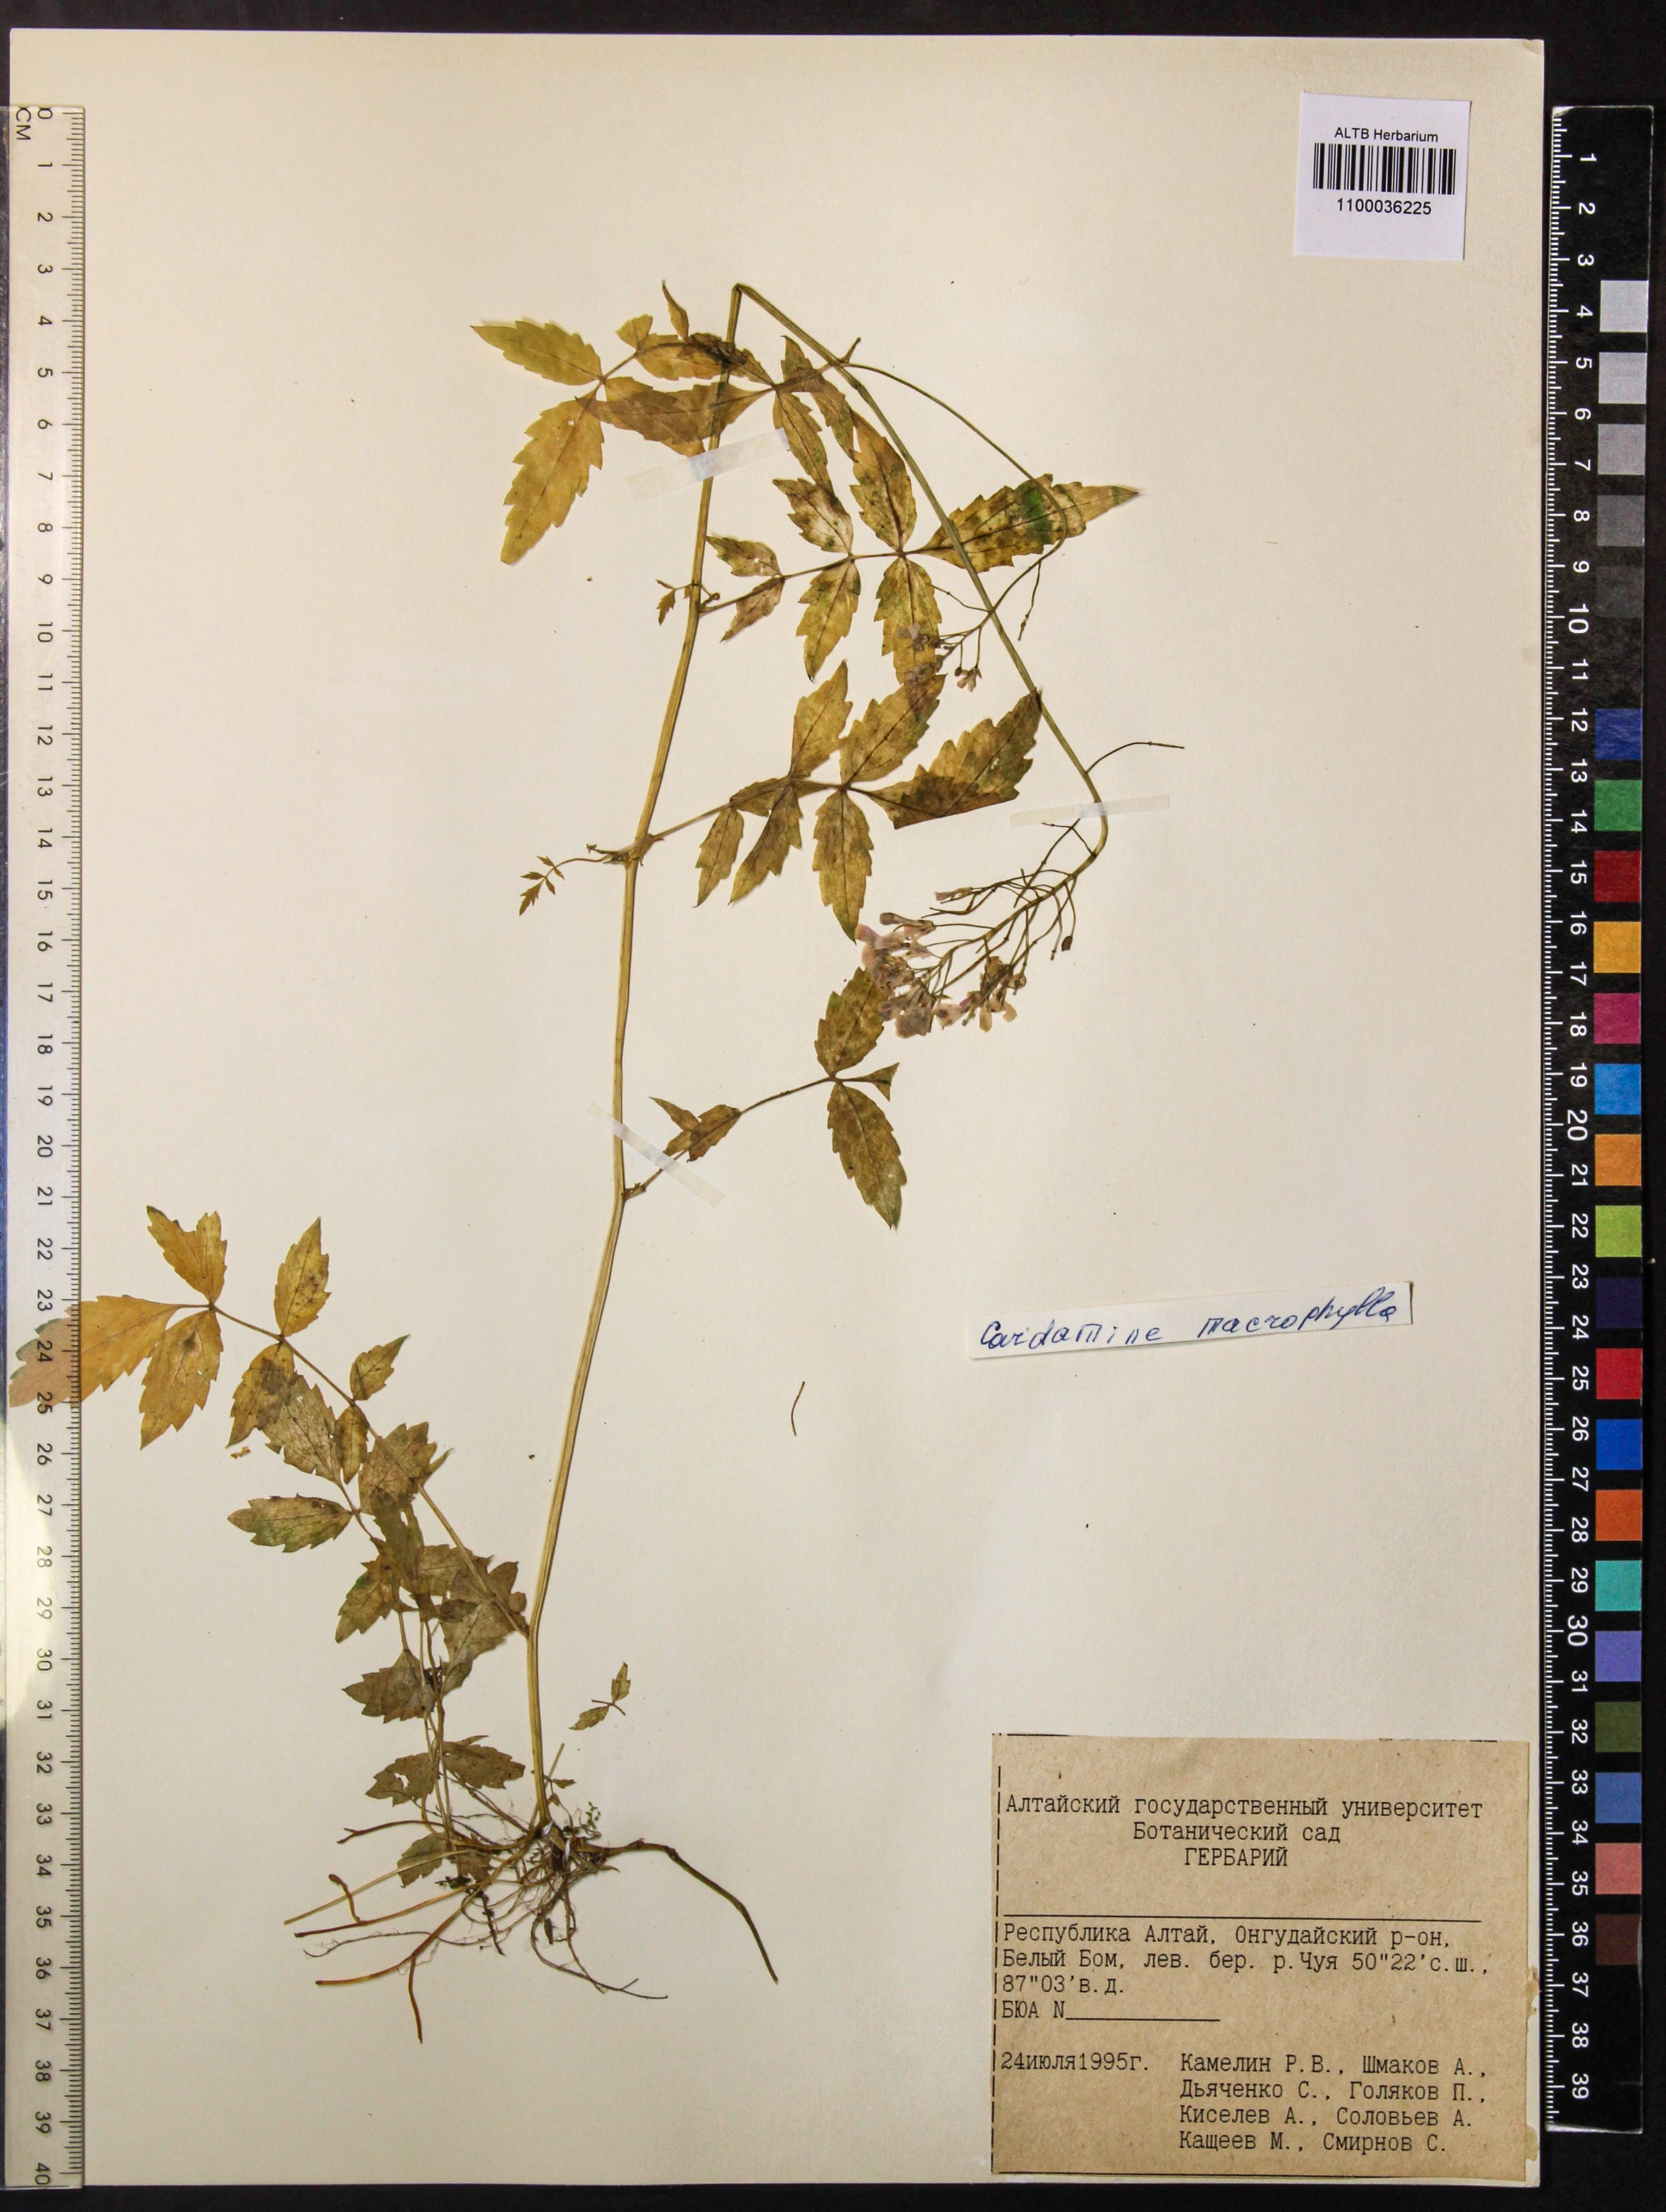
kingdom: Plantae
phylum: Tracheophyta
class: Magnoliopsida
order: Brassicales
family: Brassicaceae
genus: Cardamine
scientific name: Cardamine macrophylla
